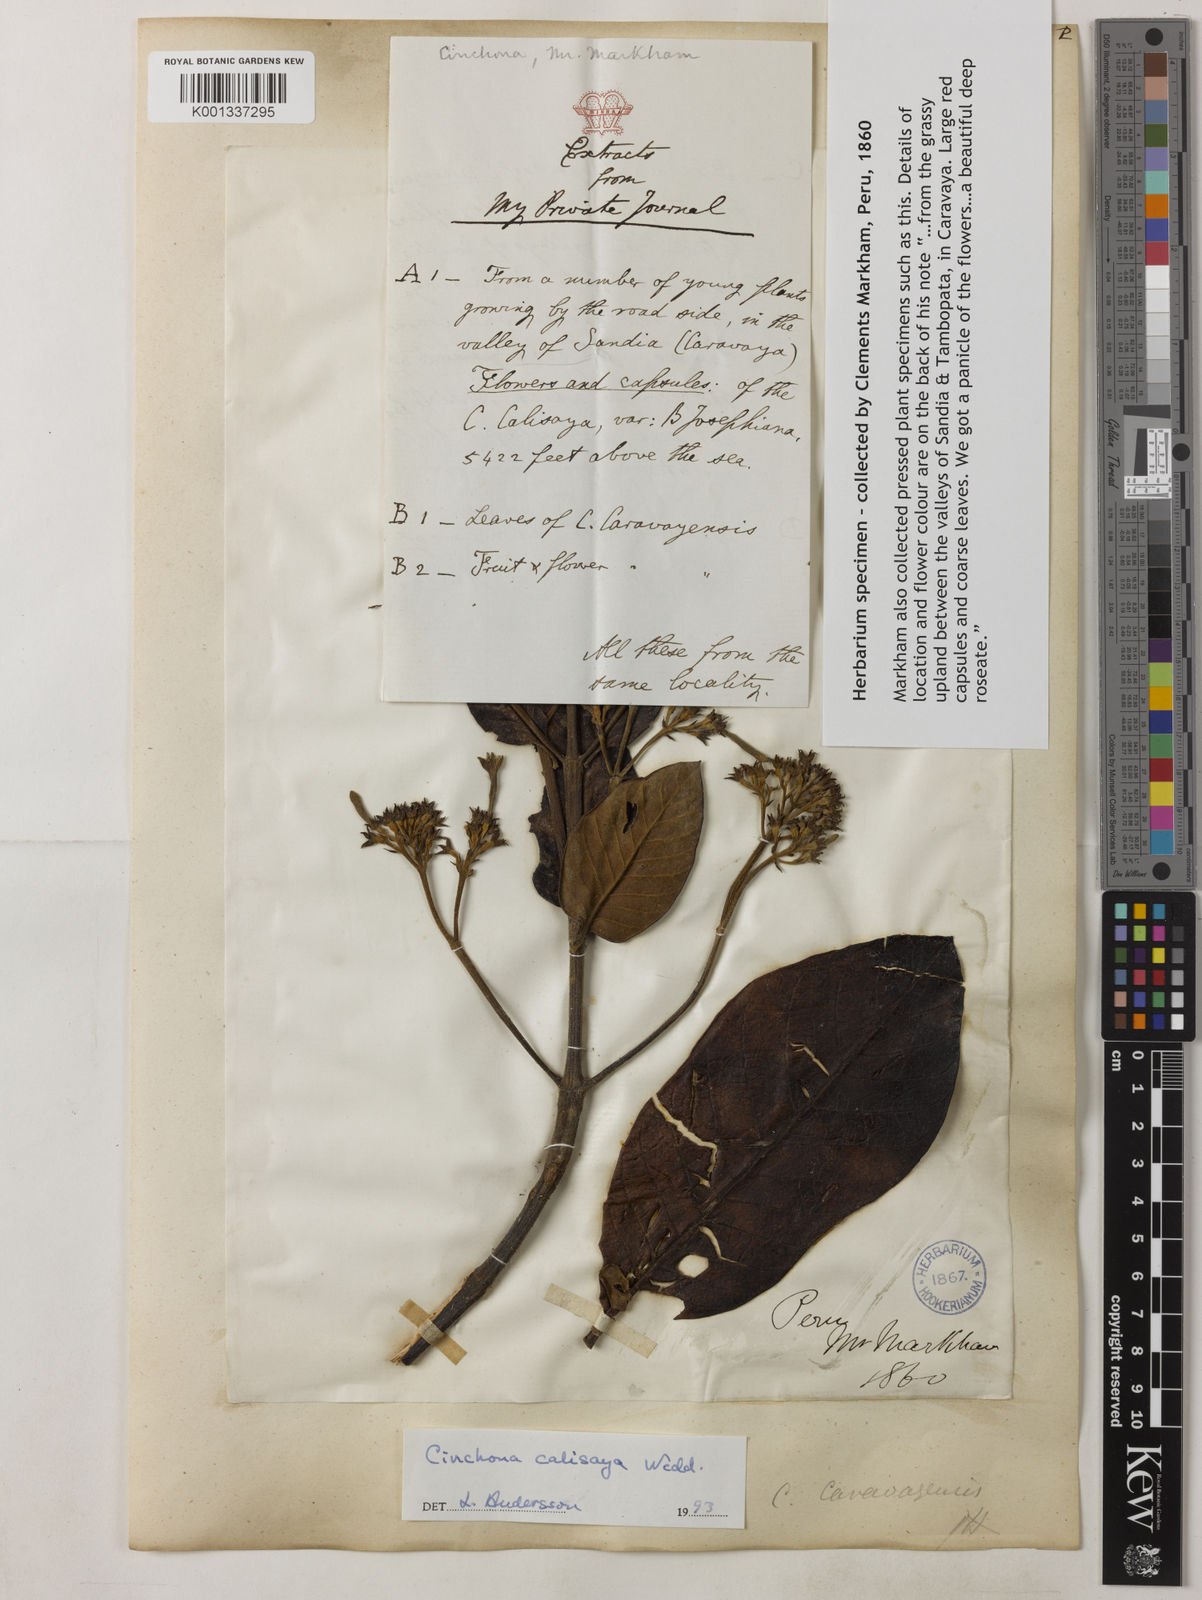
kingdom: Plantae
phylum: Tracheophyta
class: Magnoliopsida
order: Gentianales
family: Rubiaceae
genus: Cinchona
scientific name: Cinchona calisaya
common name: Ledgerbark
